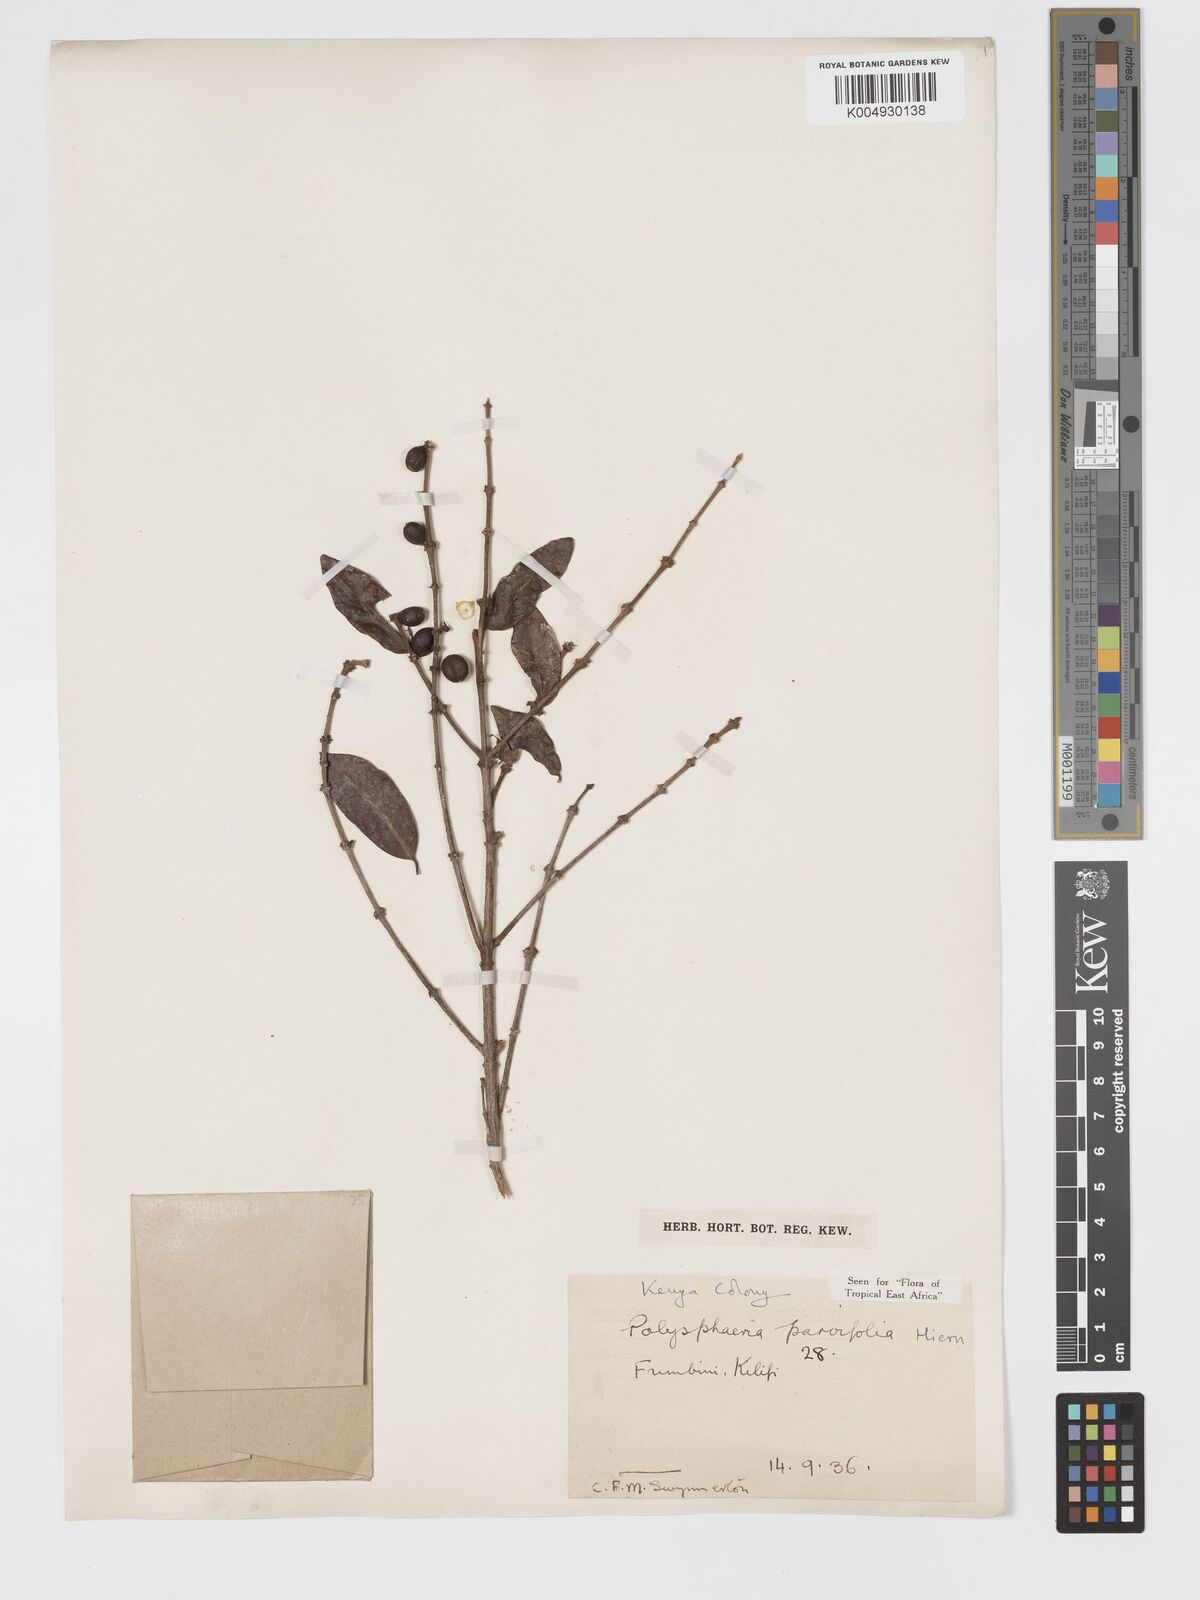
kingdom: Plantae
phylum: Tracheophyta
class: Magnoliopsida
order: Gentianales
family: Rubiaceae
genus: Polysphaeria
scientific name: Polysphaeria parvifolia
